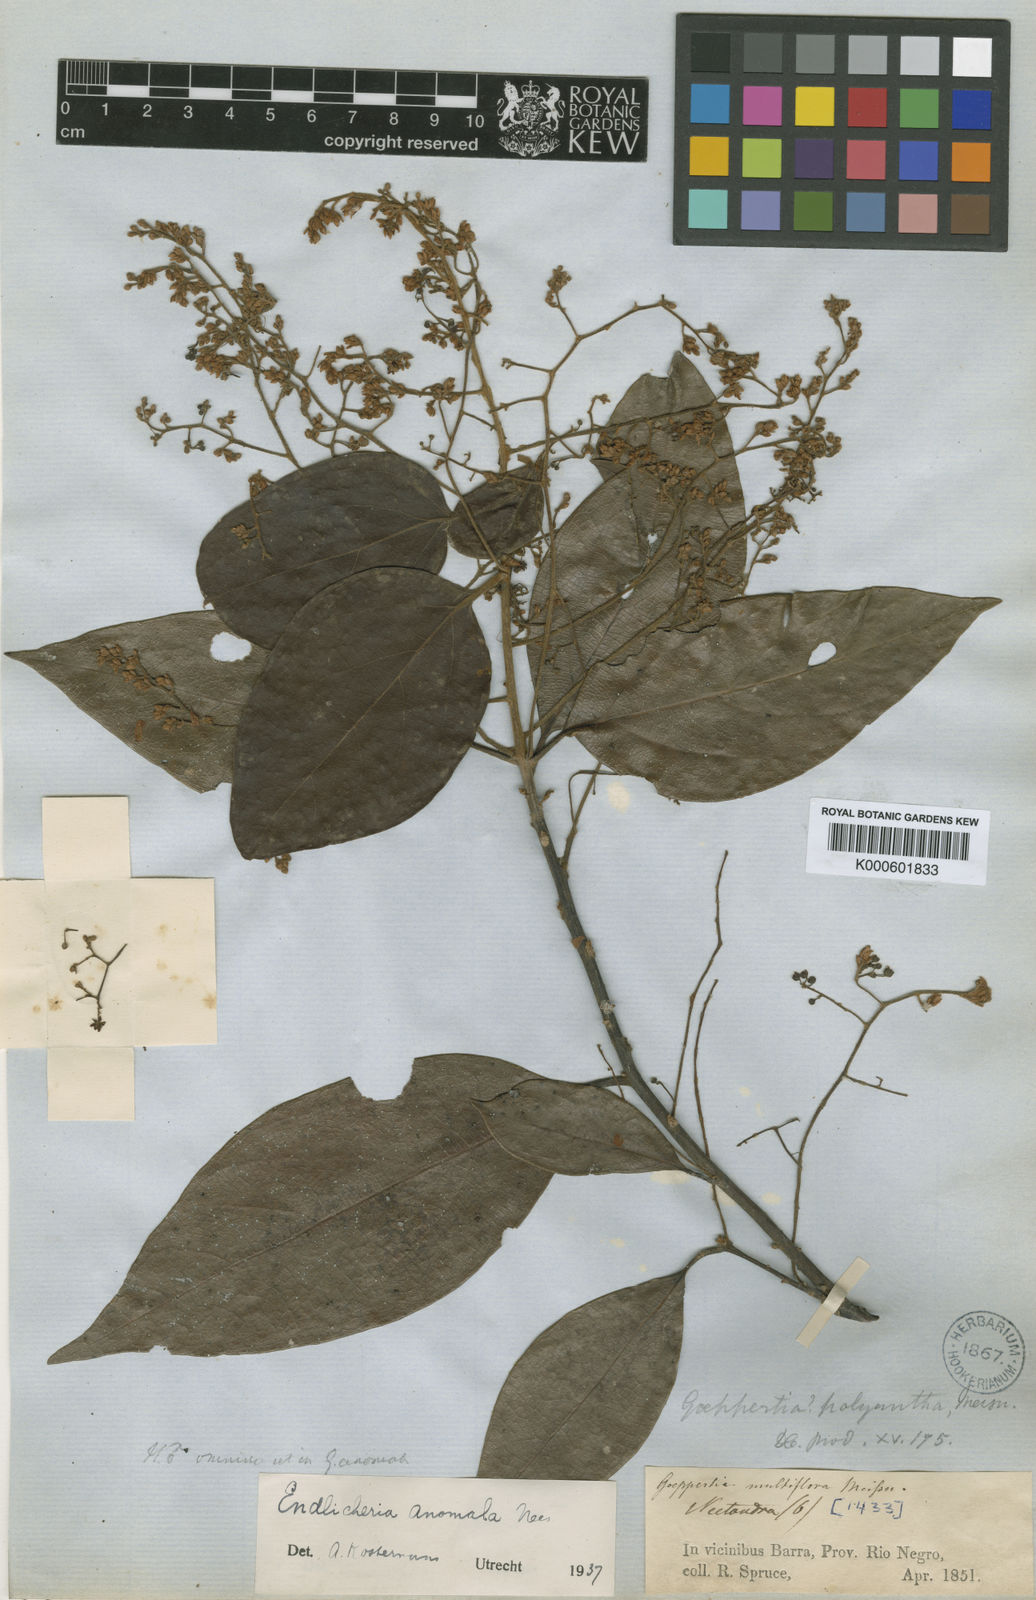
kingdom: Plantae
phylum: Tracheophyta
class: Magnoliopsida
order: Laurales
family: Lauraceae
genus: Endlicheria
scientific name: Endlicheria anomala
